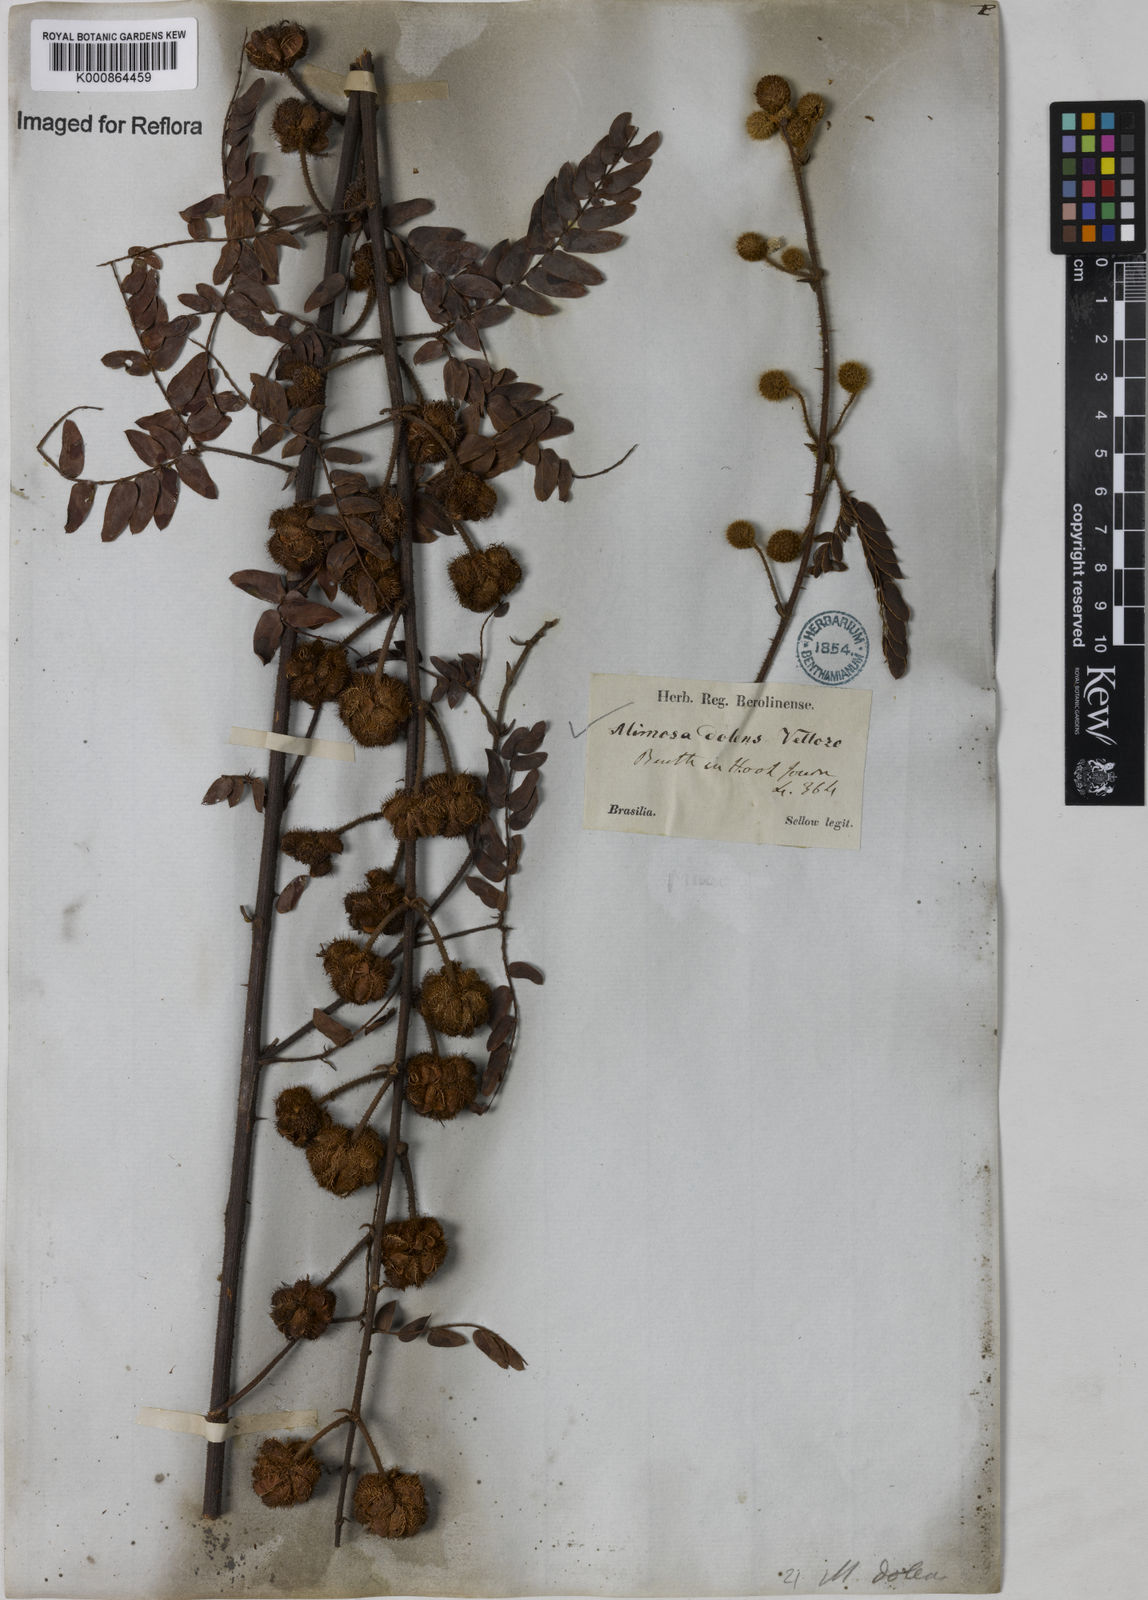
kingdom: Plantae
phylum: Tracheophyta
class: Magnoliopsida
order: Fabales
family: Fabaceae
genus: Mimosa
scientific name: Mimosa dolens
